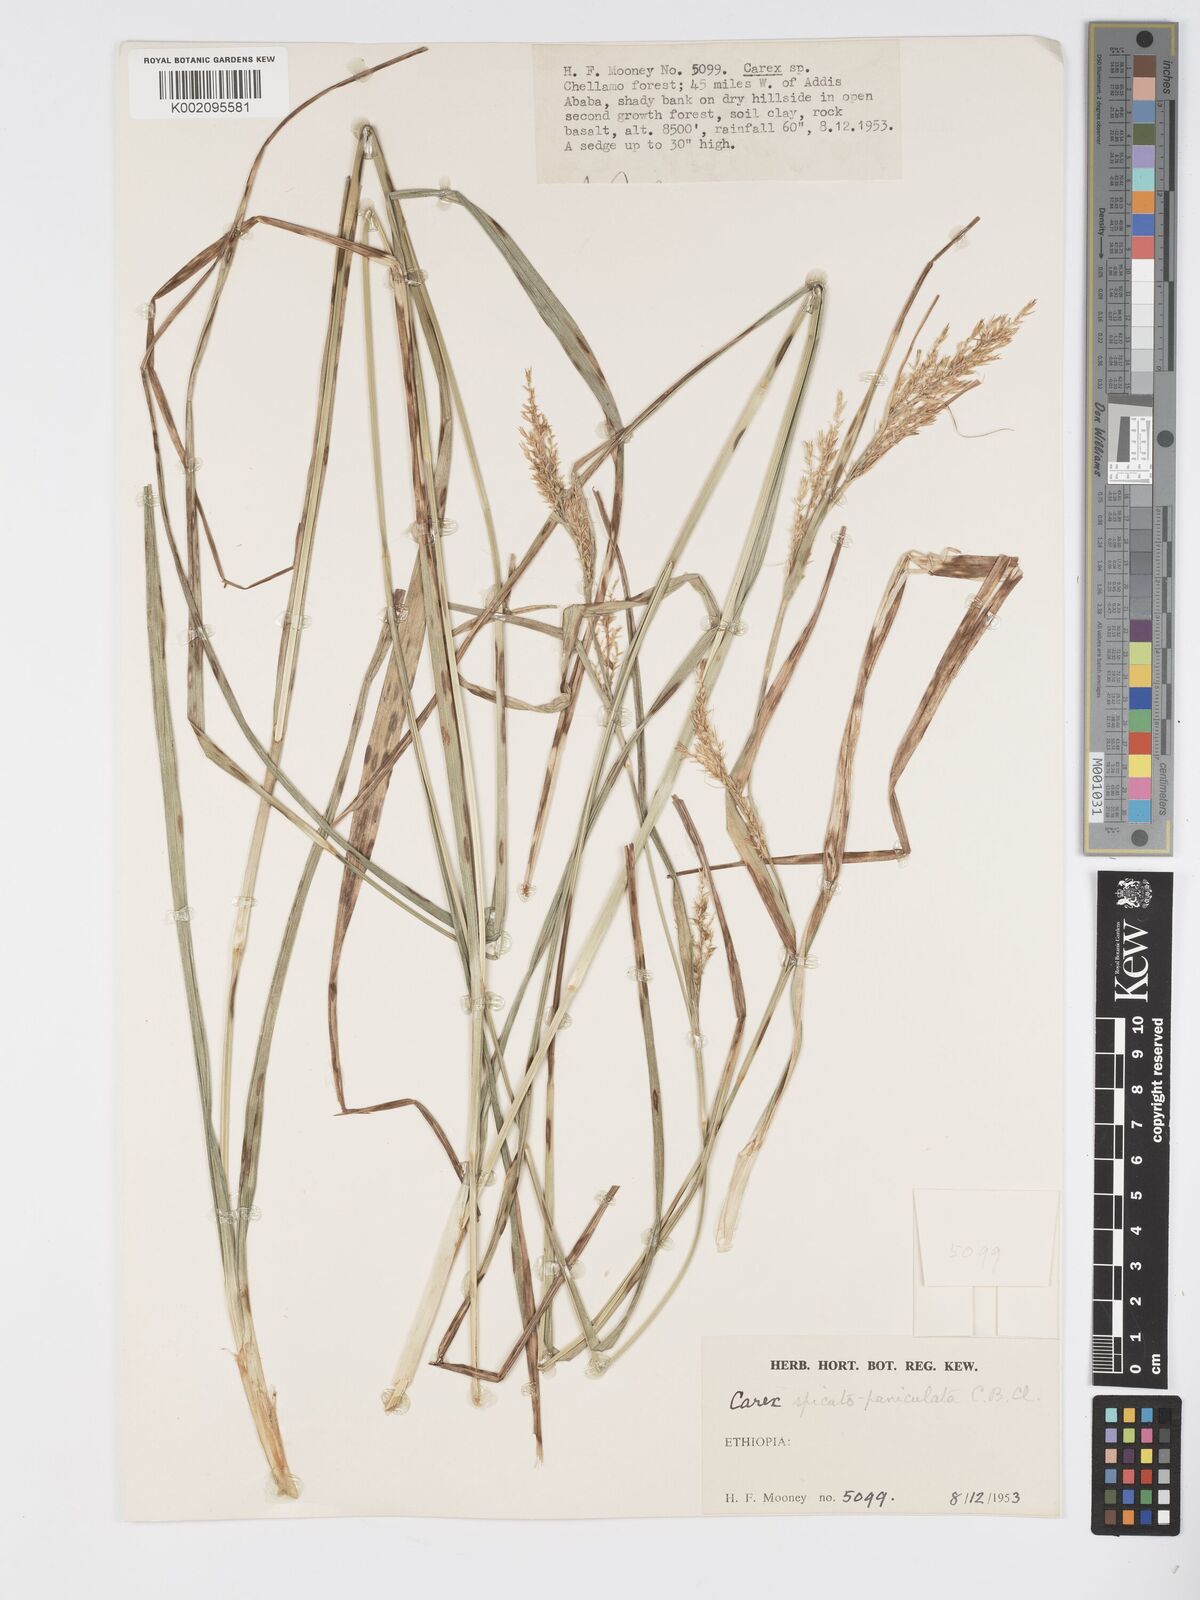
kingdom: Plantae
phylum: Tracheophyta
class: Liliopsida
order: Poales
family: Cyperaceae
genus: Carex
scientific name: Carex chlorosaccus
